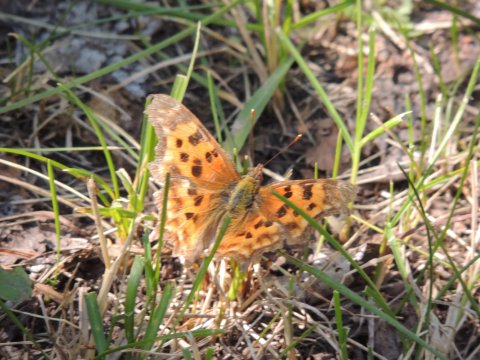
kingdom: Animalia
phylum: Arthropoda
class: Insecta
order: Lepidoptera
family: Nymphalidae
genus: Polygonia
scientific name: Polygonia satyrus
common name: Satyr Comma
